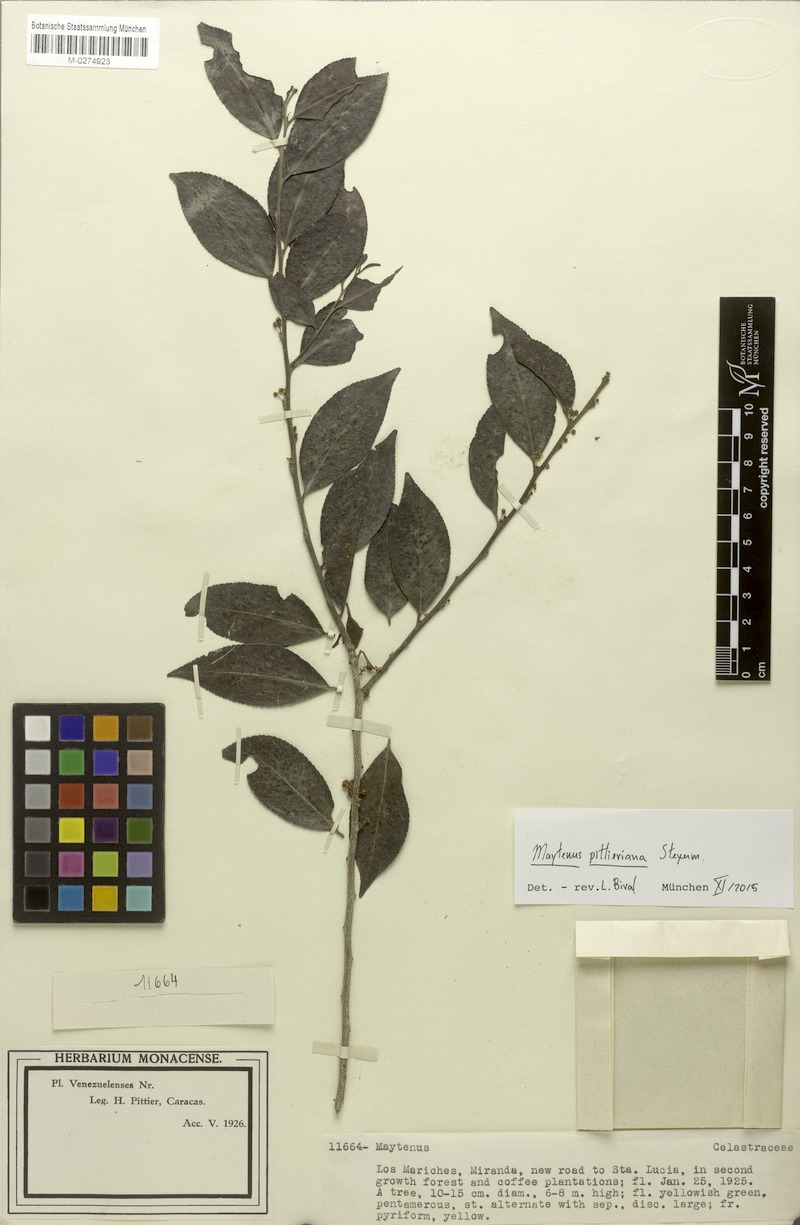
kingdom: Plantae
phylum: Tracheophyta
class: Magnoliopsida
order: Celastrales
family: Celastraceae
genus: Monteverdia
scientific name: Monteverdia pittieriana
